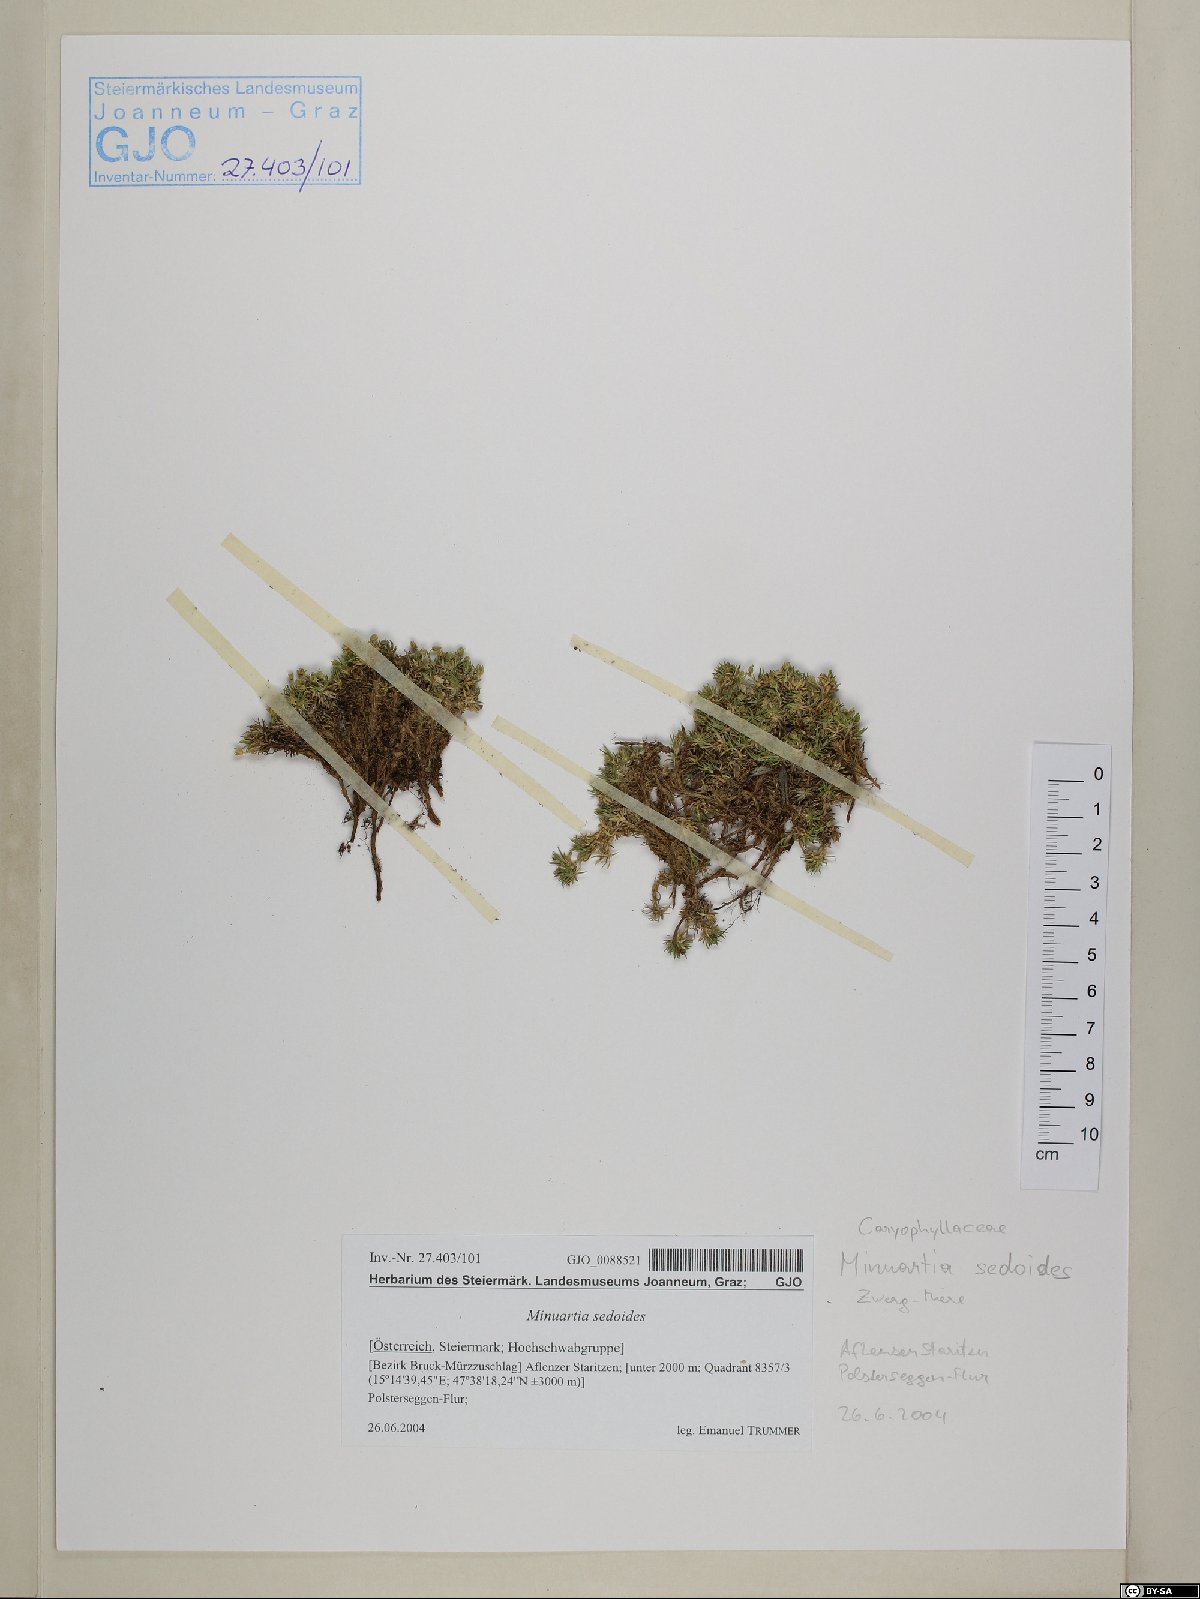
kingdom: Plantae
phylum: Tracheophyta
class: Magnoliopsida
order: Caryophyllales
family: Caryophyllaceae
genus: Cherleria
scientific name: Cherleria sedoides
